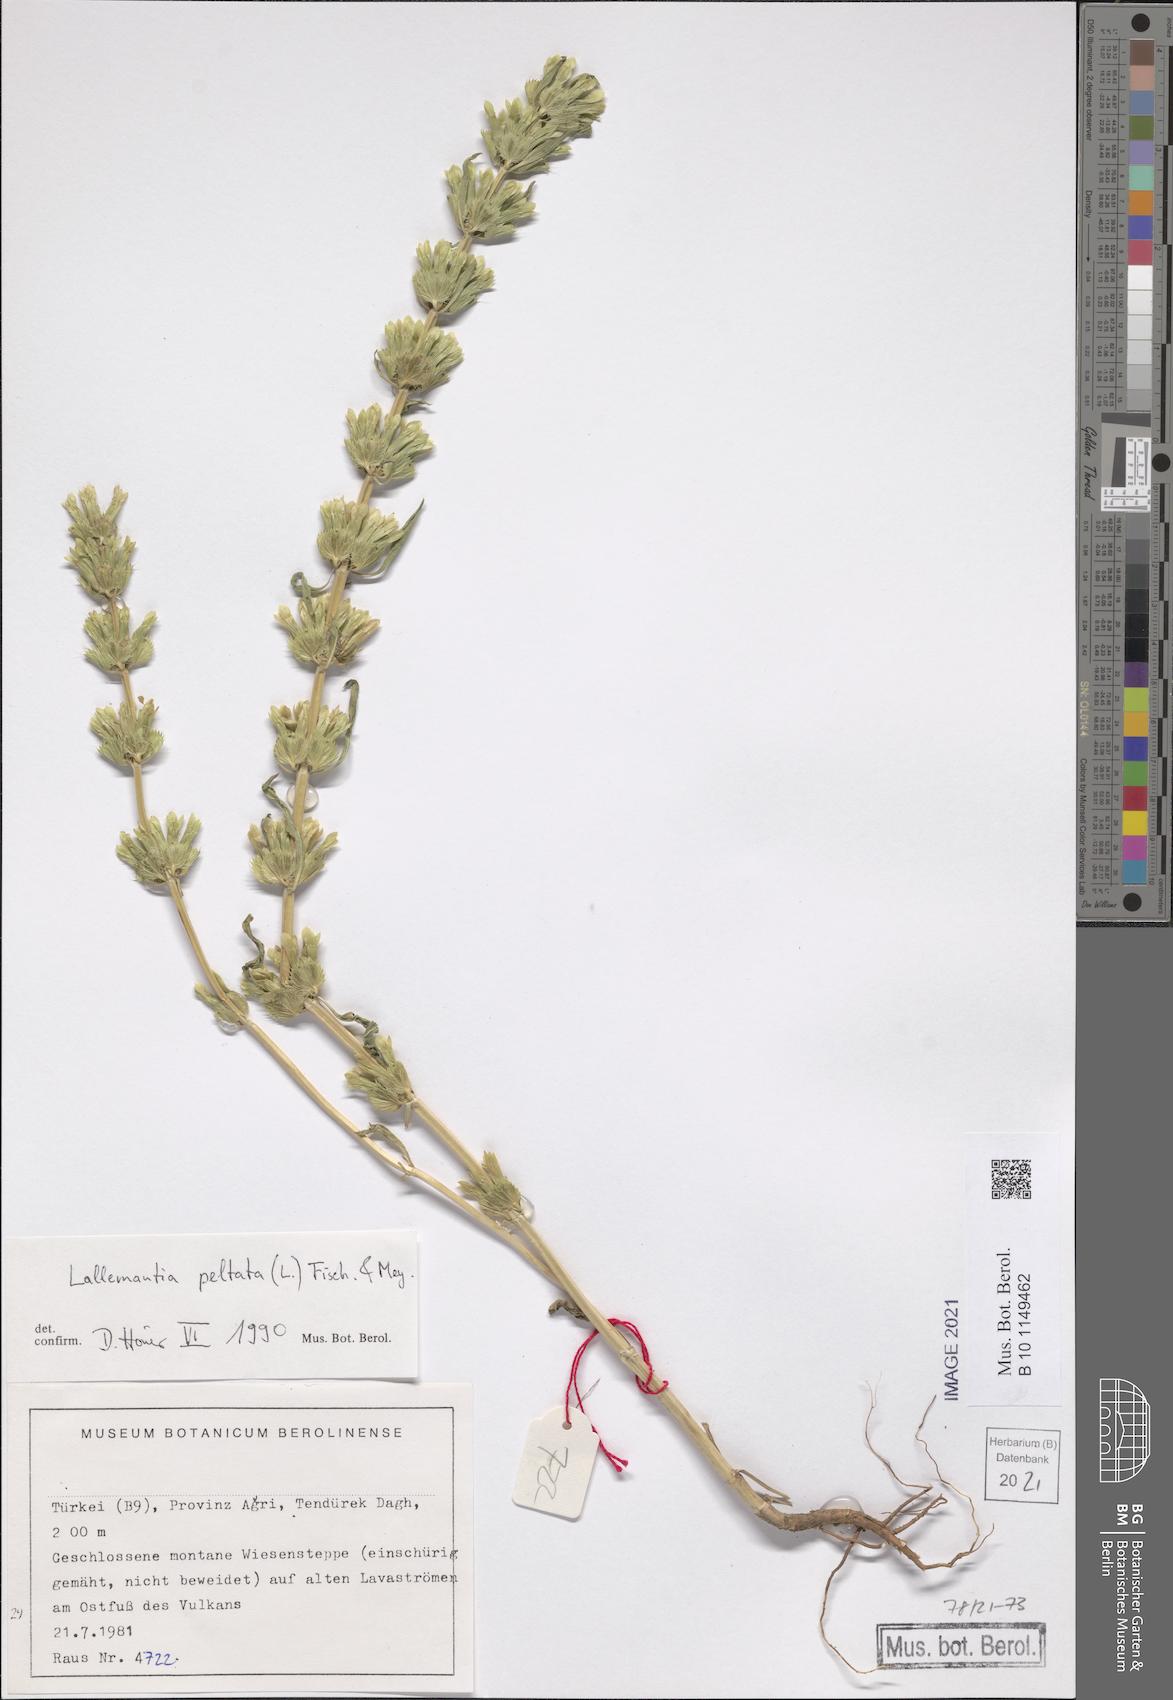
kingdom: Plantae
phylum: Tracheophyta
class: Magnoliopsida
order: Lamiales
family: Lamiaceae
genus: Lallemantia
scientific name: Lallemantia peltata
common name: Lion's heart
